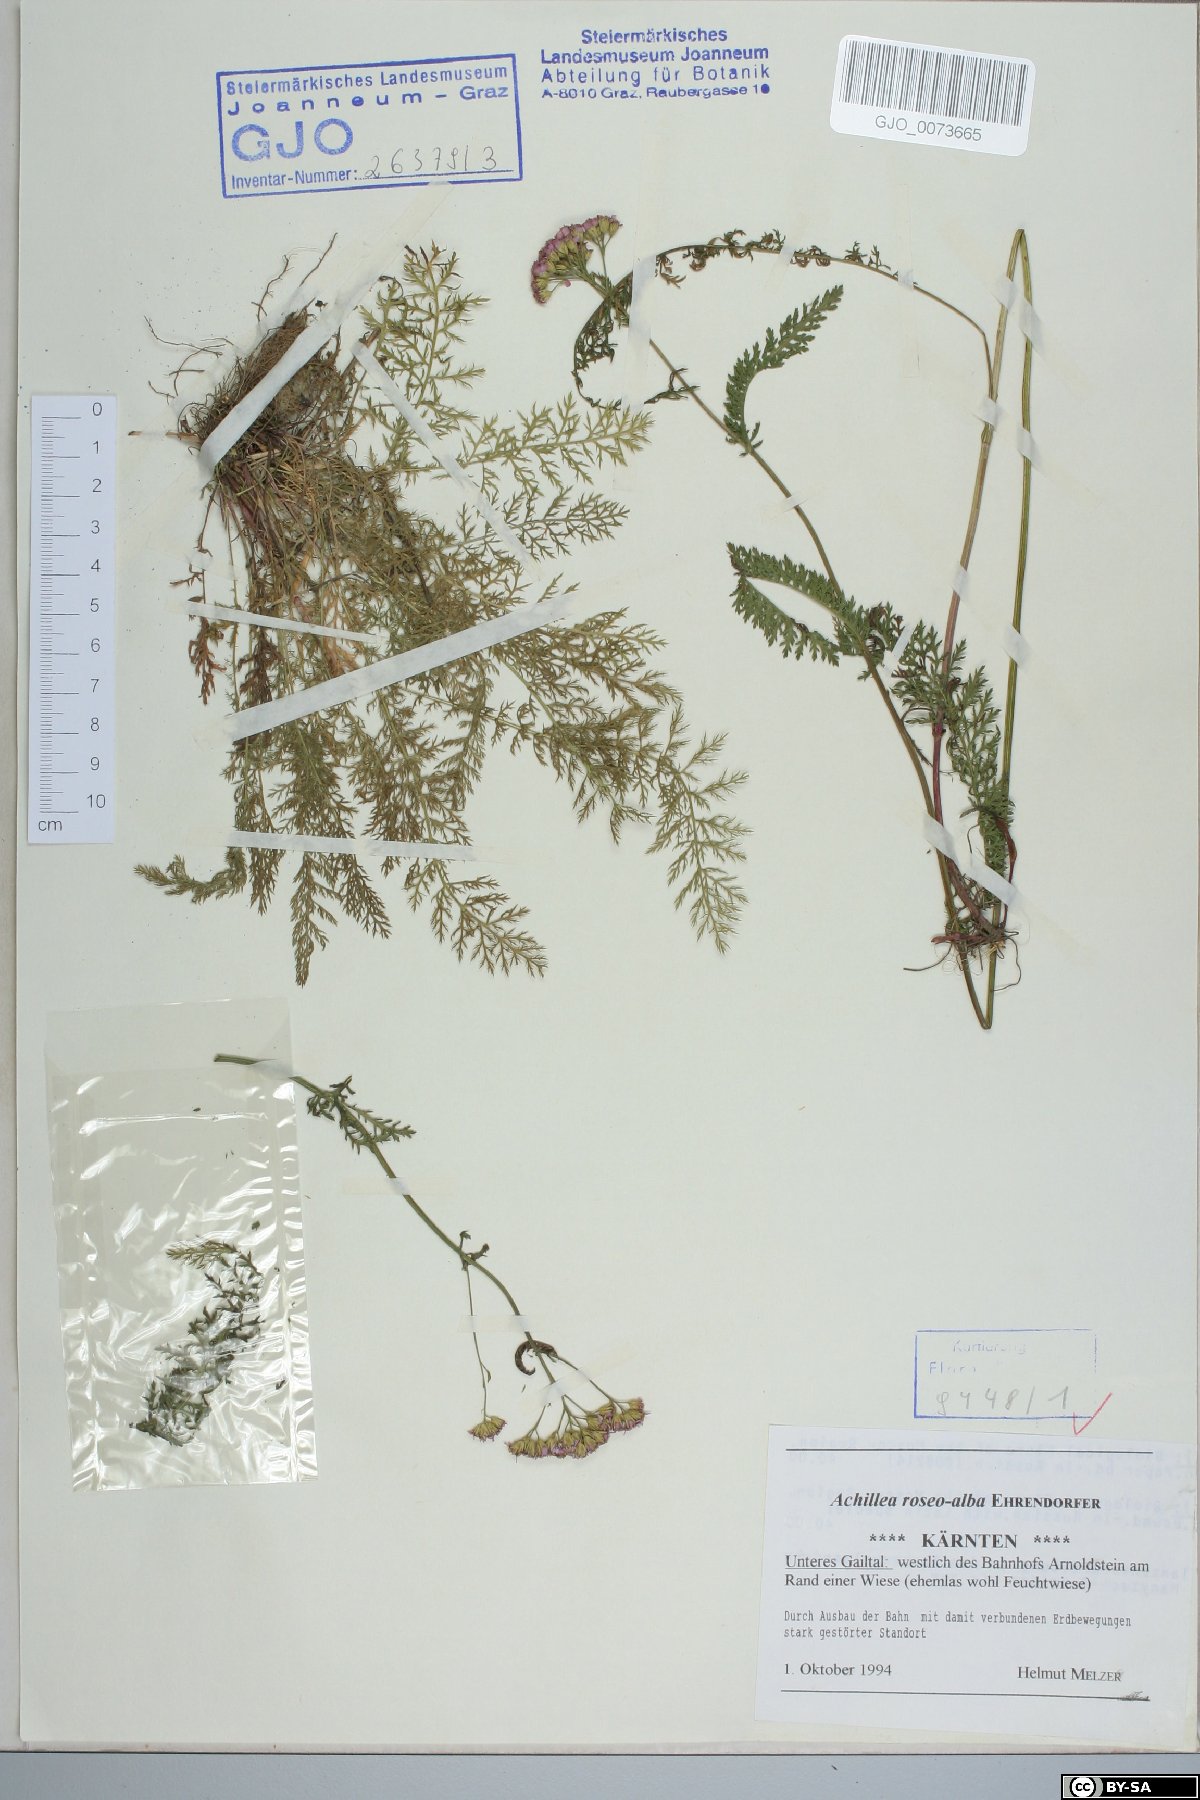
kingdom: Plantae
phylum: Tracheophyta
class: Magnoliopsida
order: Asterales
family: Asteraceae
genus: Achillea
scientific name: Achillea roseoalba
